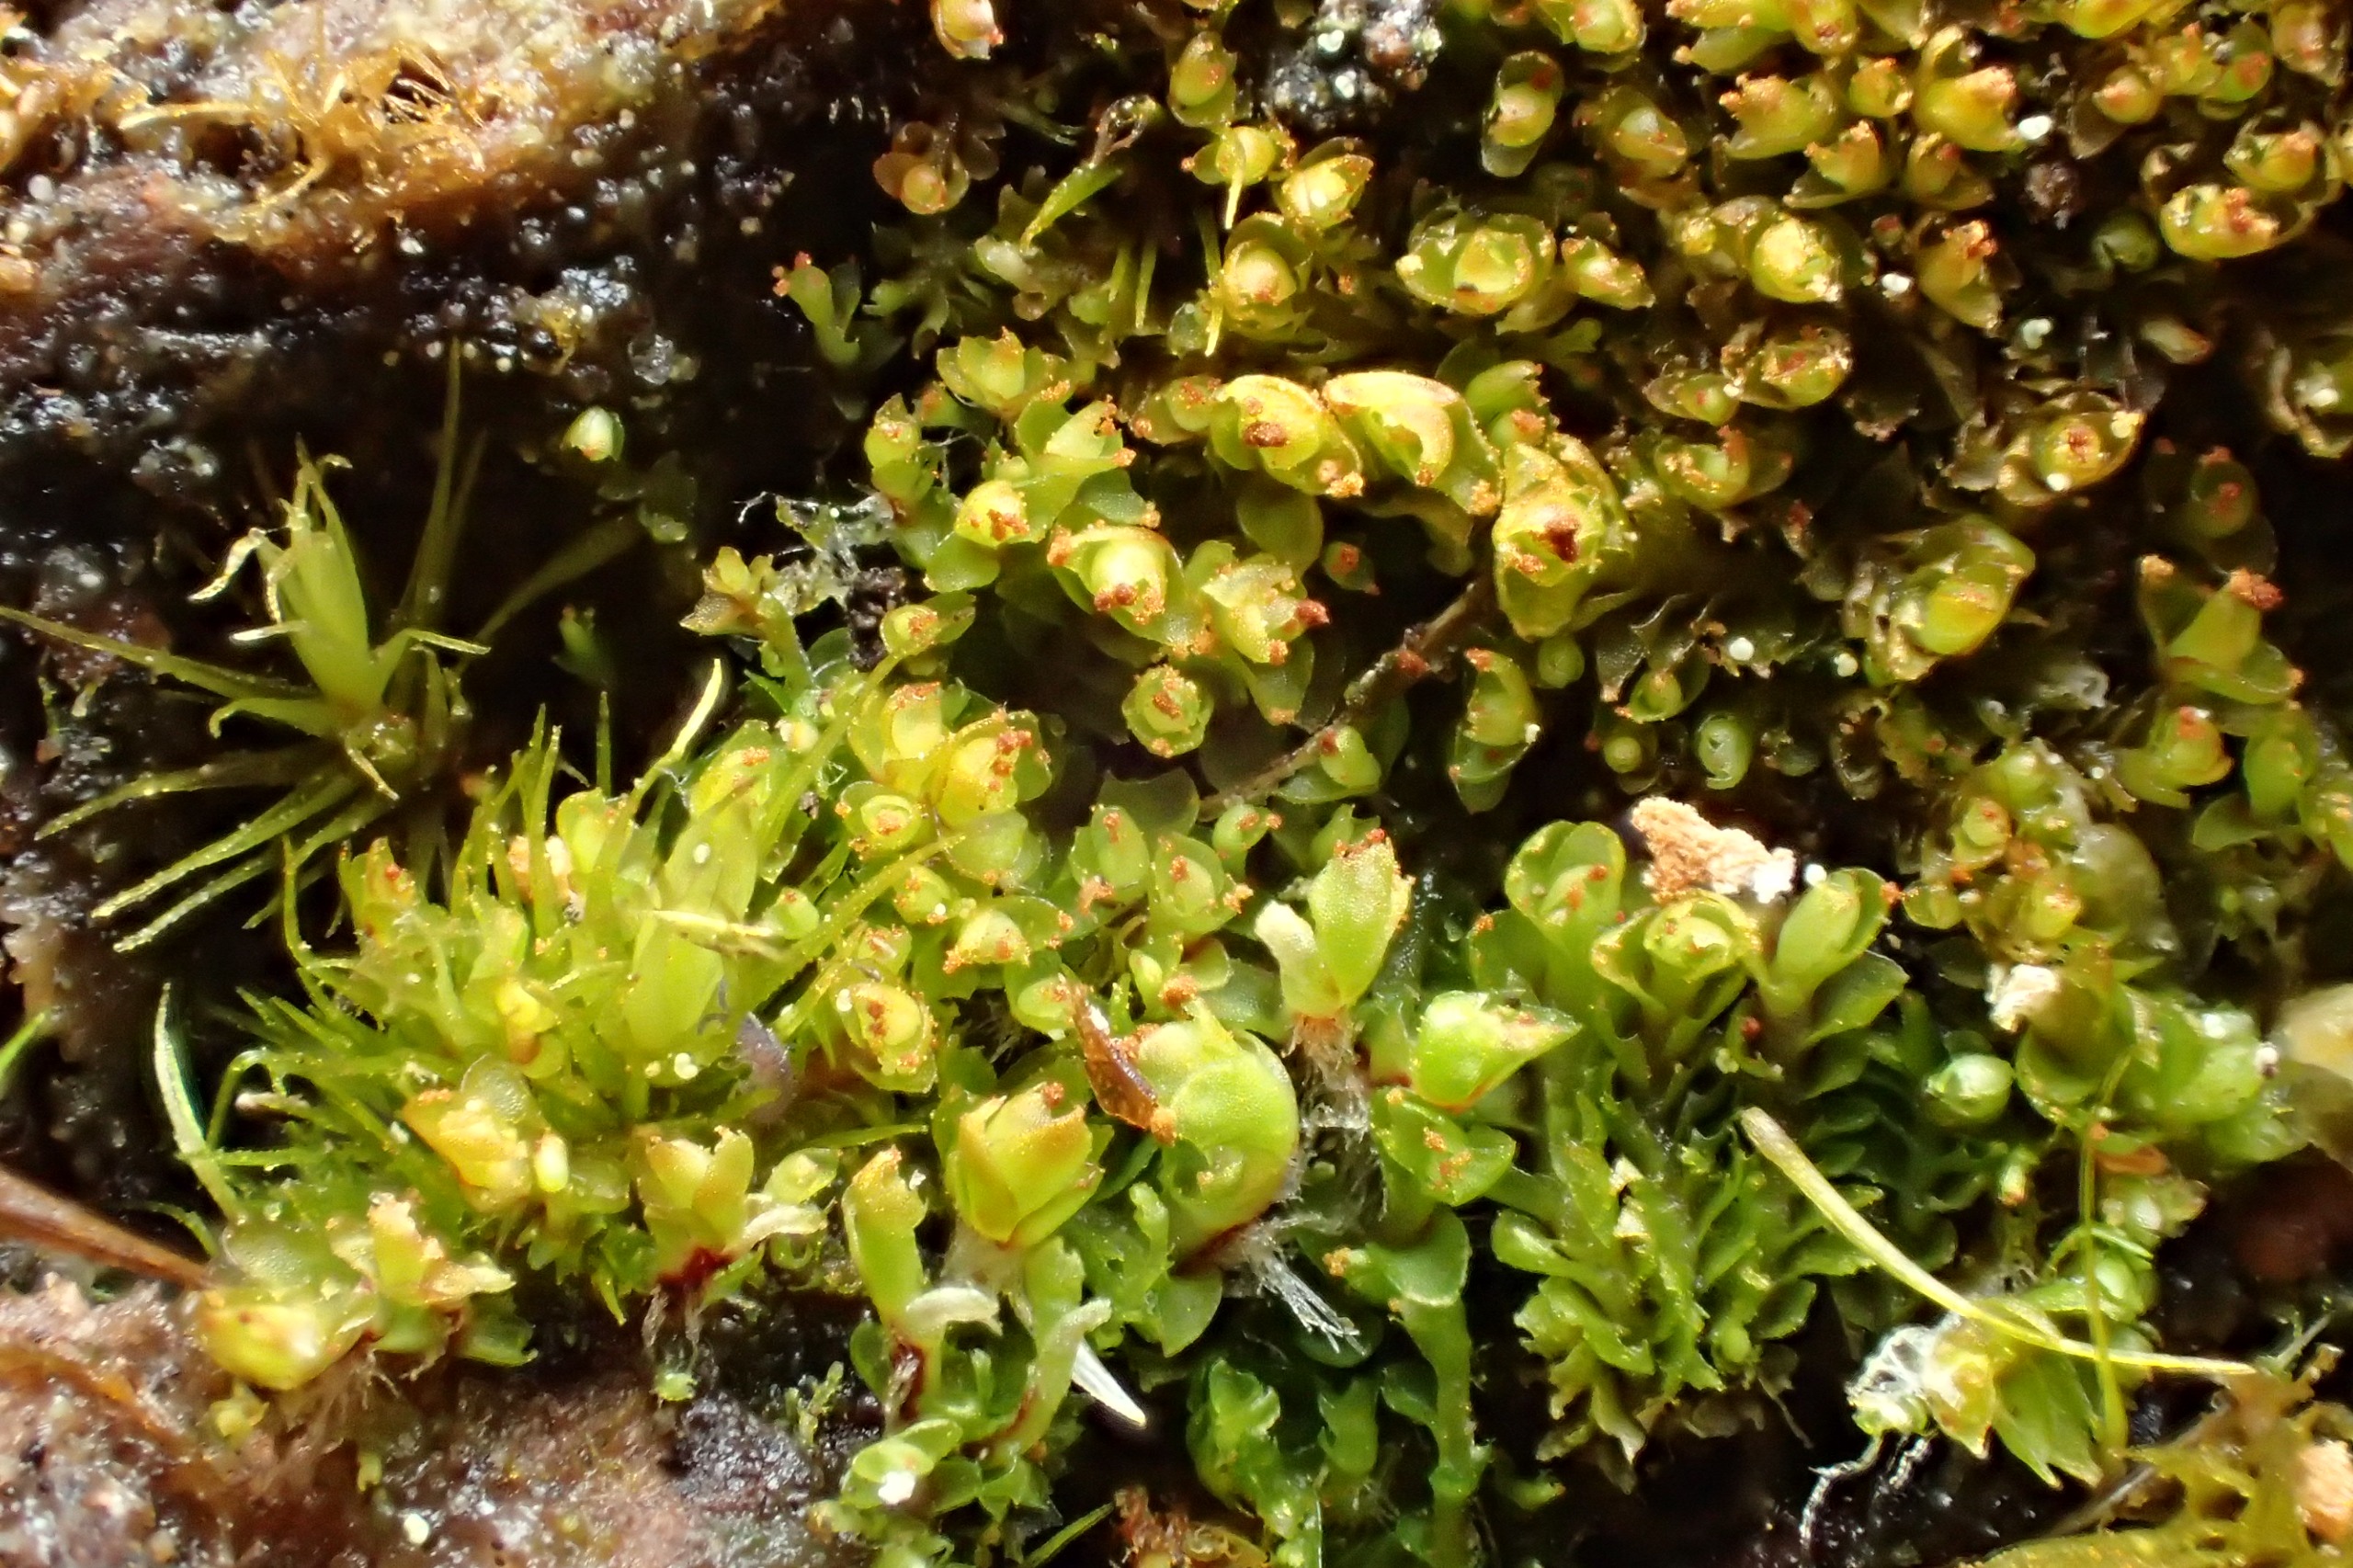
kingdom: Plantae
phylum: Marchantiophyta
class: Jungermanniopsida
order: Jungermanniales
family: Lophoziaceae
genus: Tritomaria
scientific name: Tritomaria exsectiformis
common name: Skævbladet tretand
